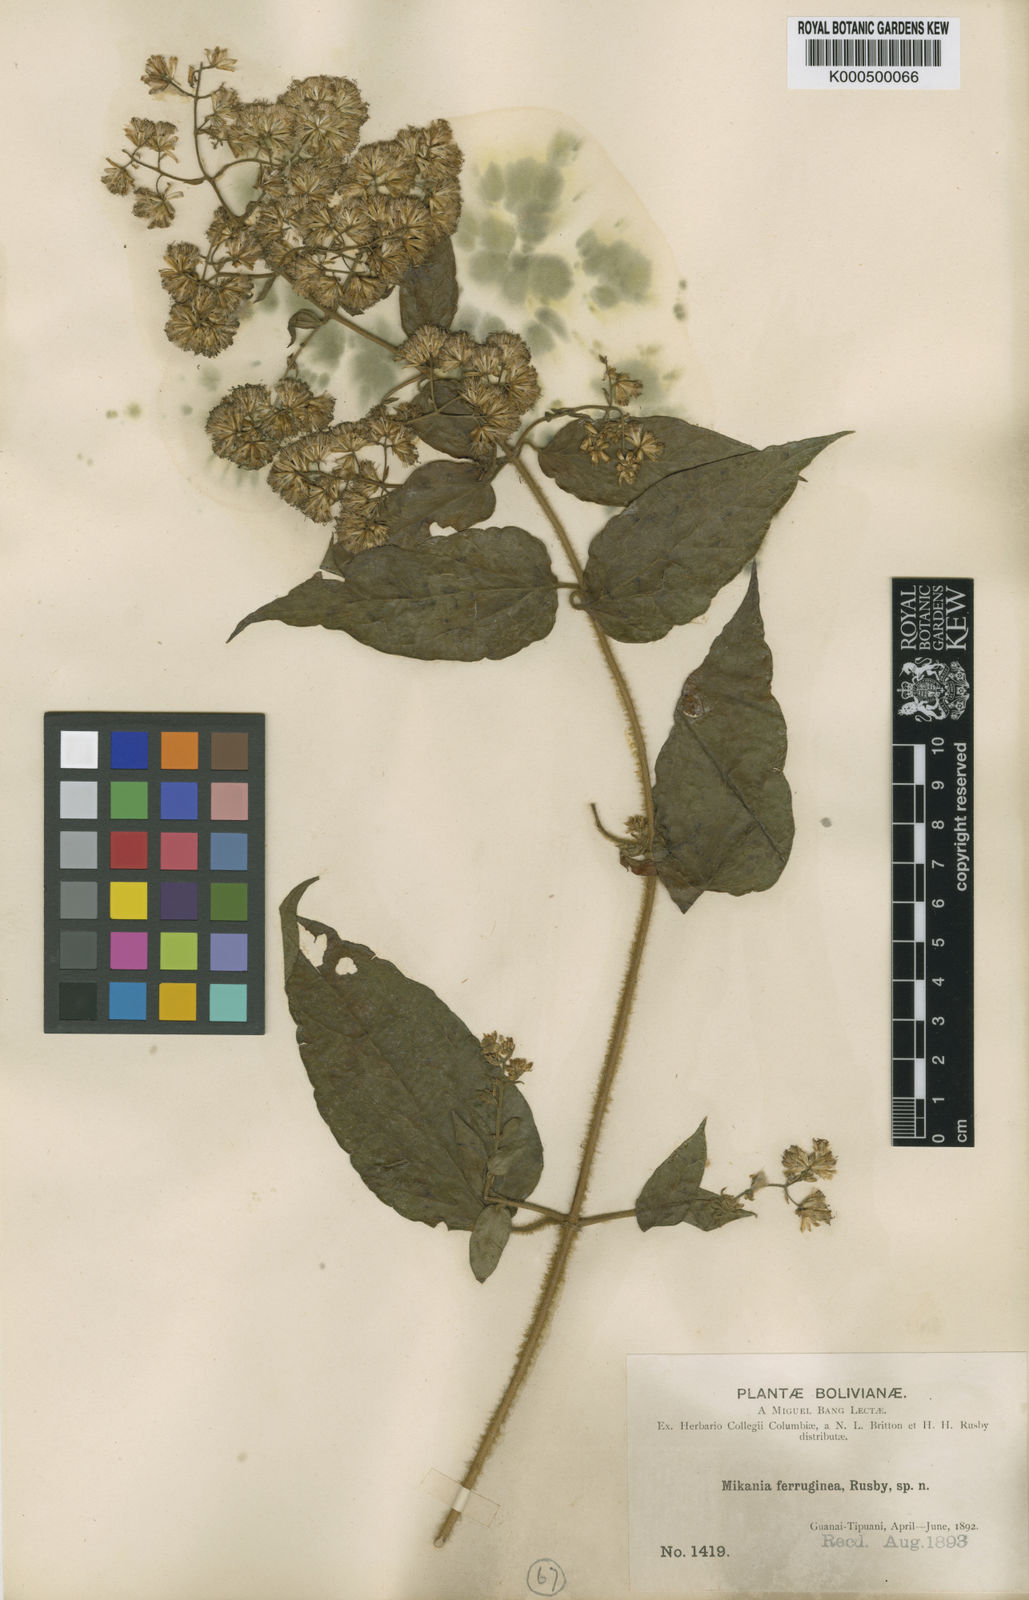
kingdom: Plantae
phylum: Tracheophyta
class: Magnoliopsida
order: Asterales
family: Asteraceae
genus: Mikania
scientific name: Mikania banisteriae
